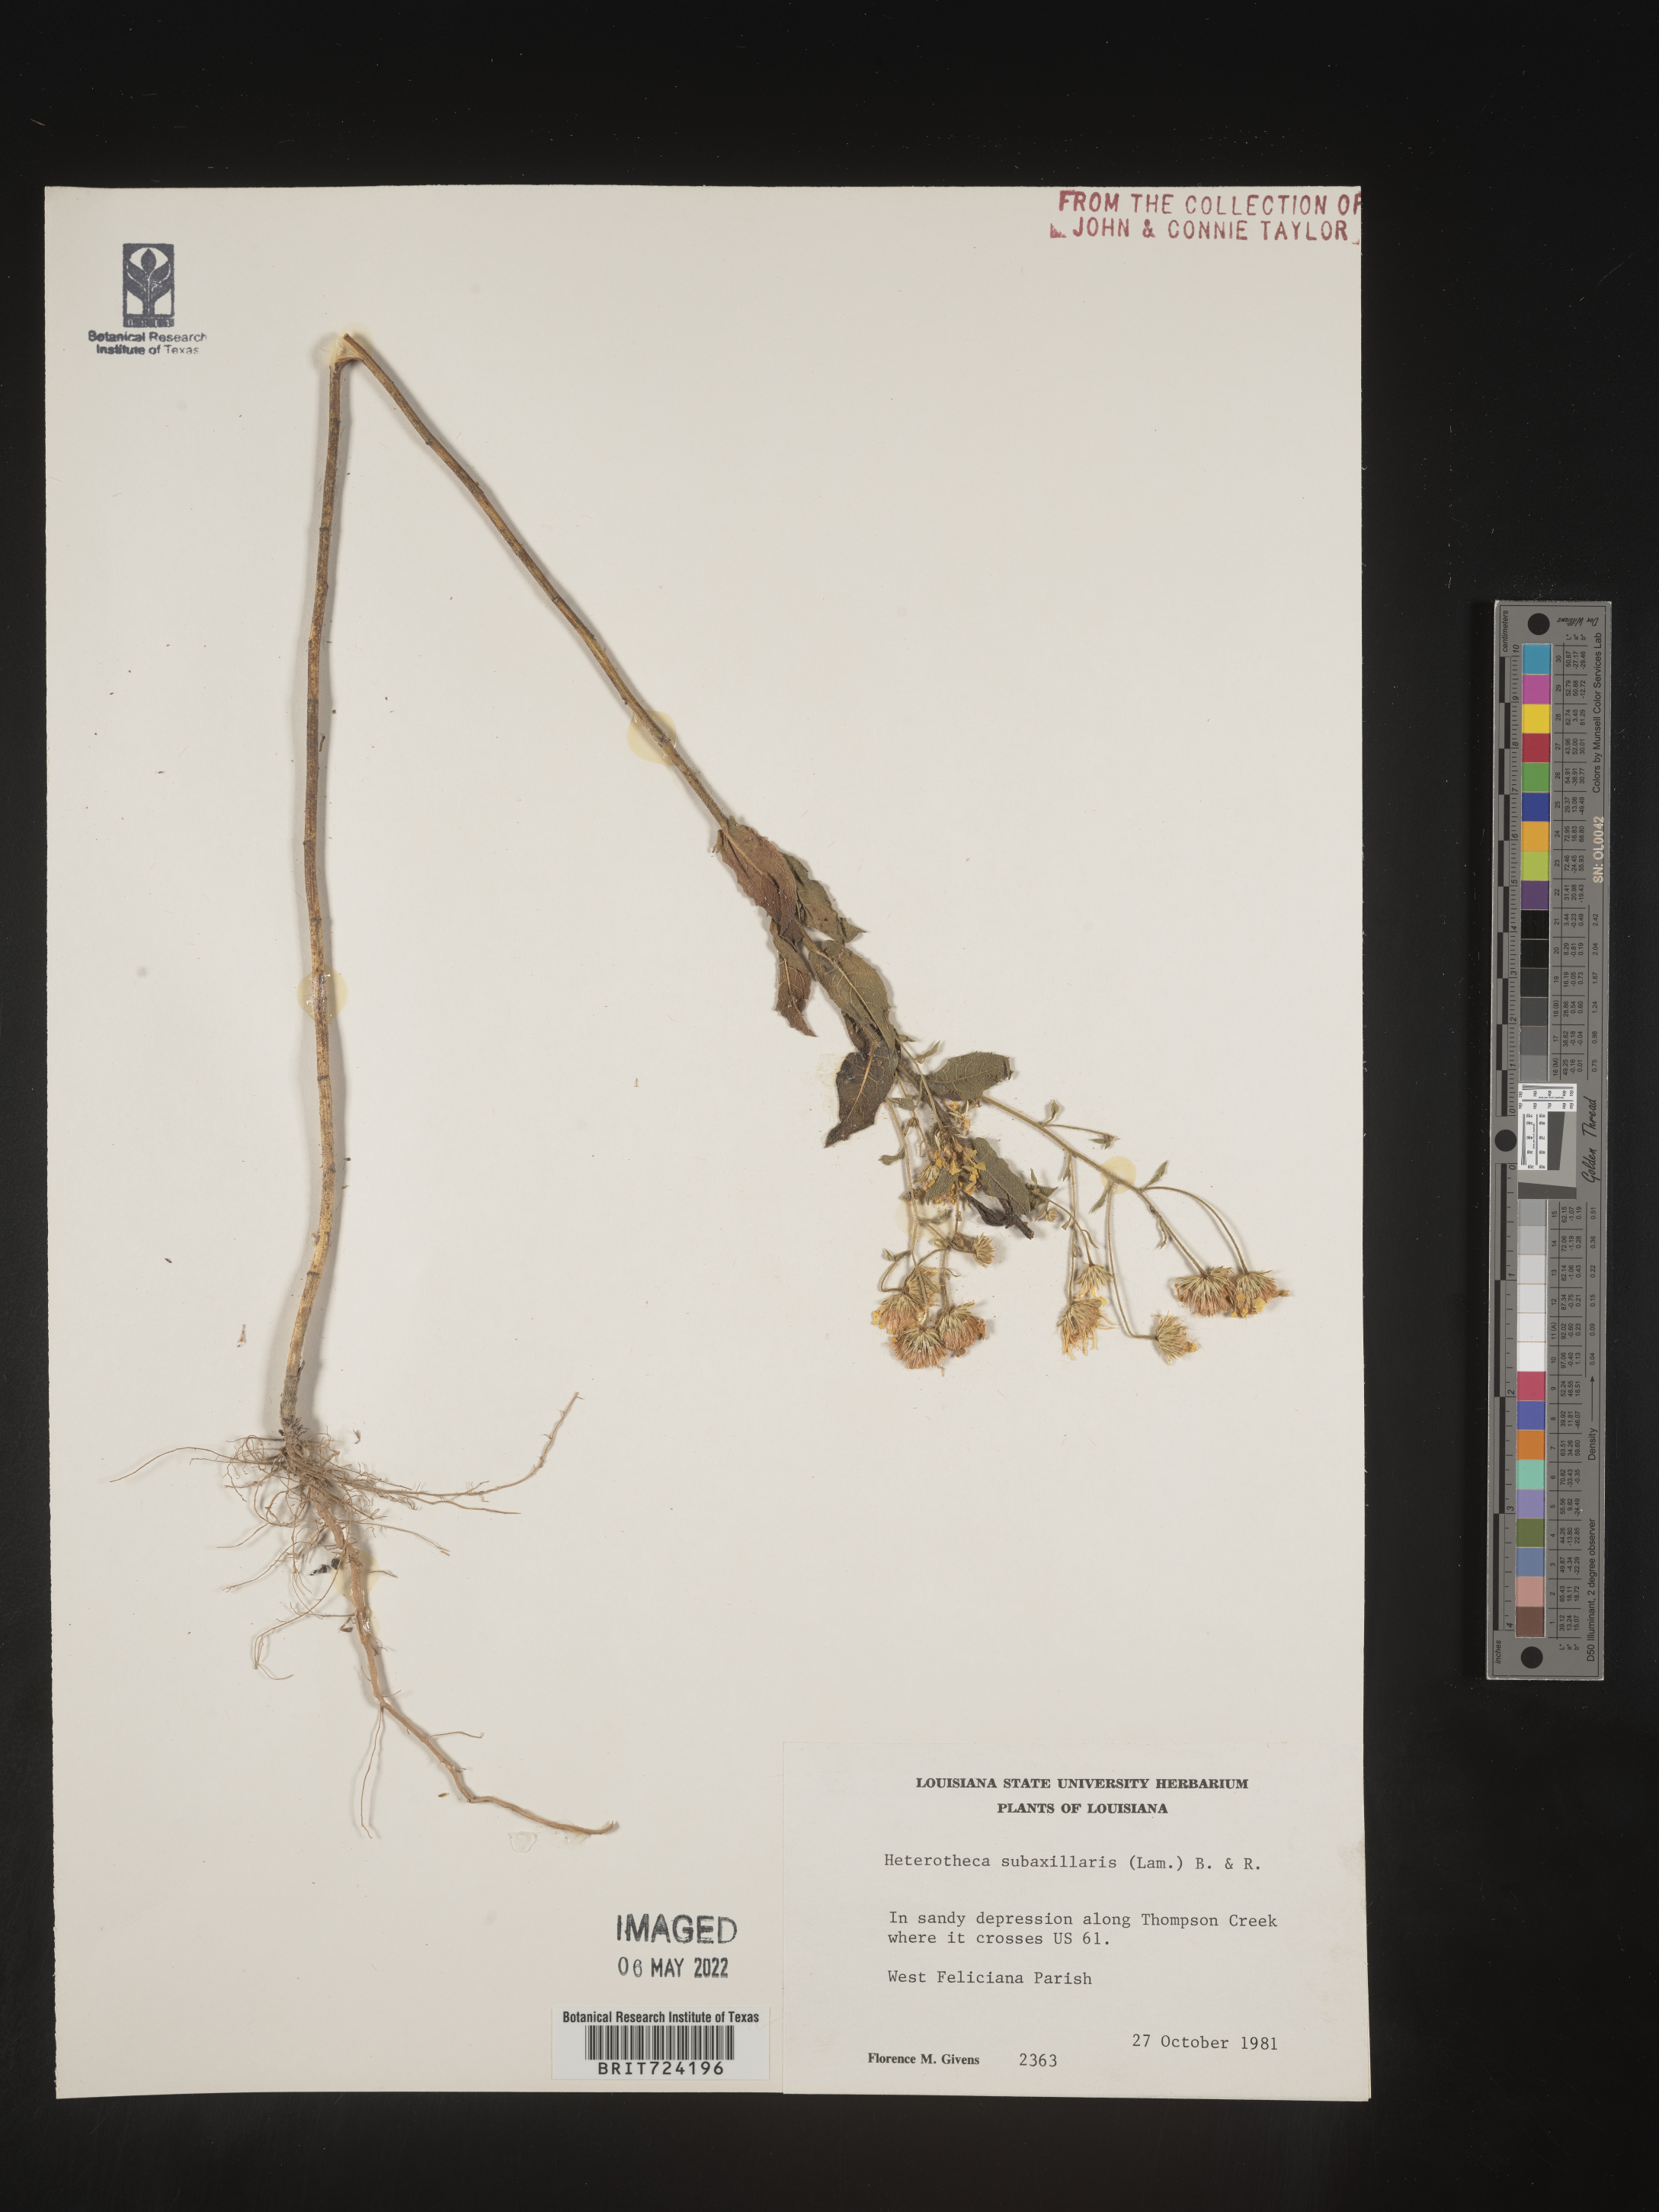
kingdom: Plantae
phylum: Tracheophyta
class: Magnoliopsida
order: Asterales
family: Asteraceae
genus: Heterotheca
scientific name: Heterotheca subaxillaris
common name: Camphorweed
